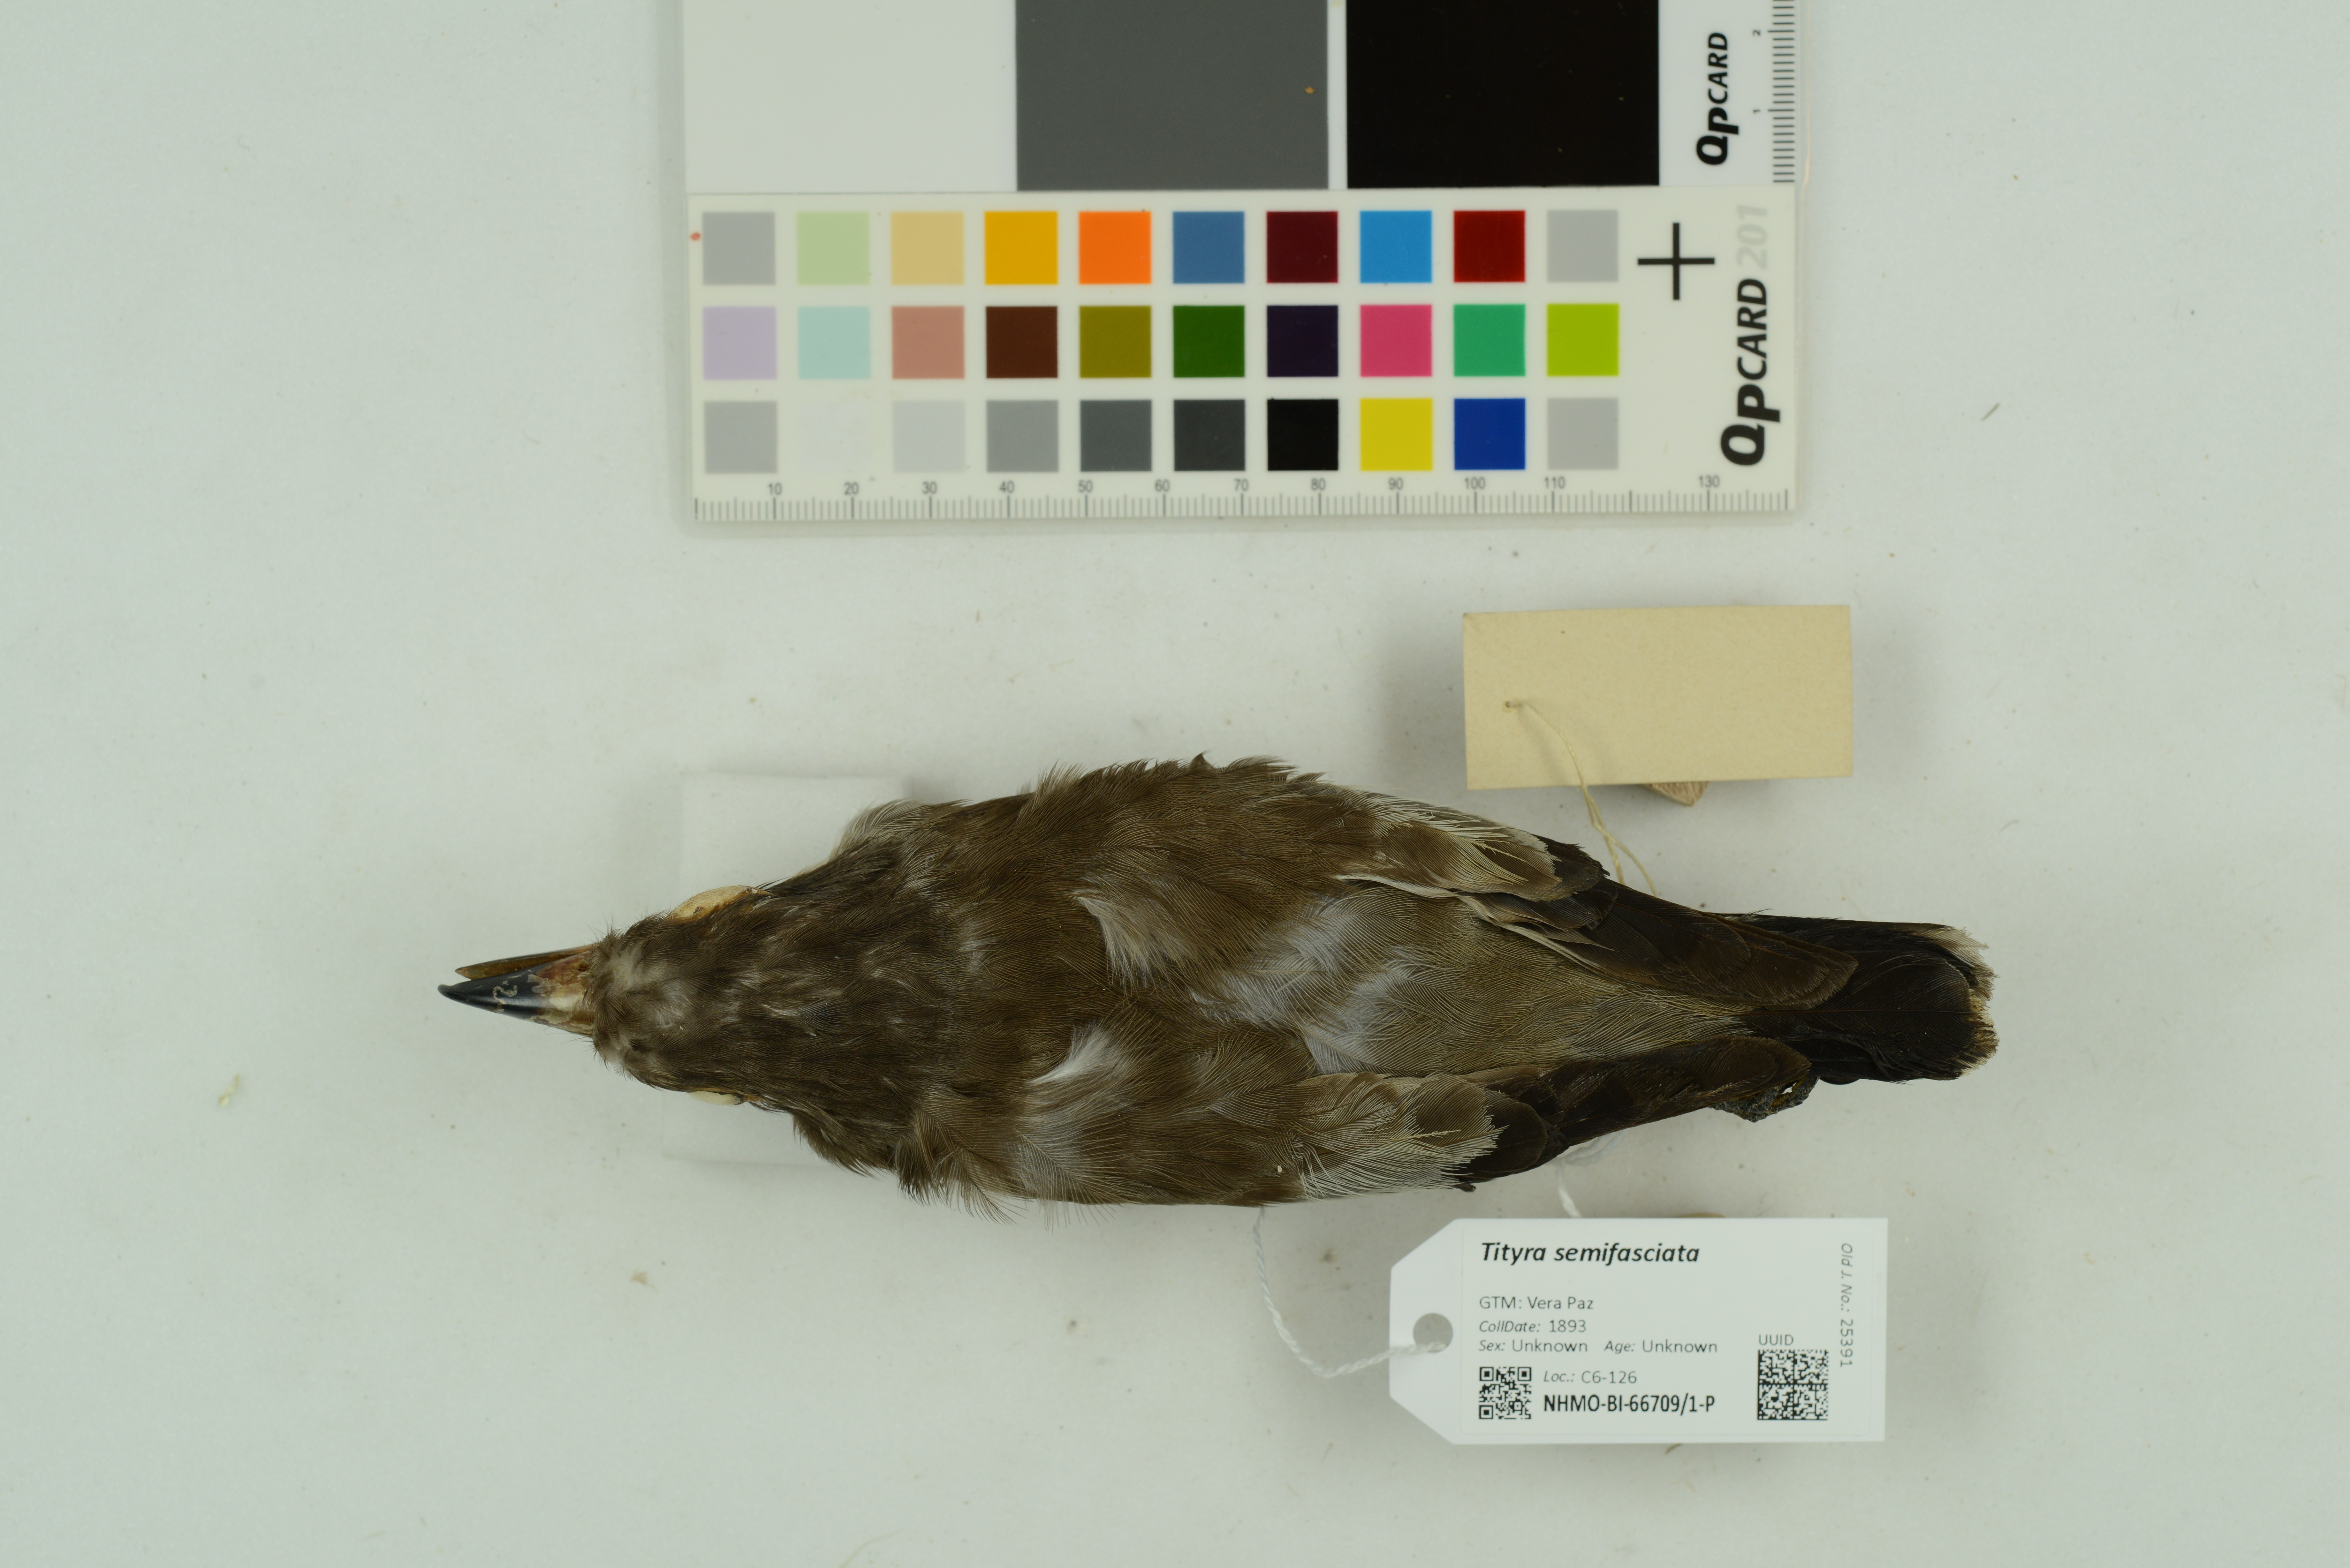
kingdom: Animalia
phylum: Chordata
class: Aves
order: Passeriformes
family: Cotingidae
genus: Tityra
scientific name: Tityra semifasciata
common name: Masked tityra
